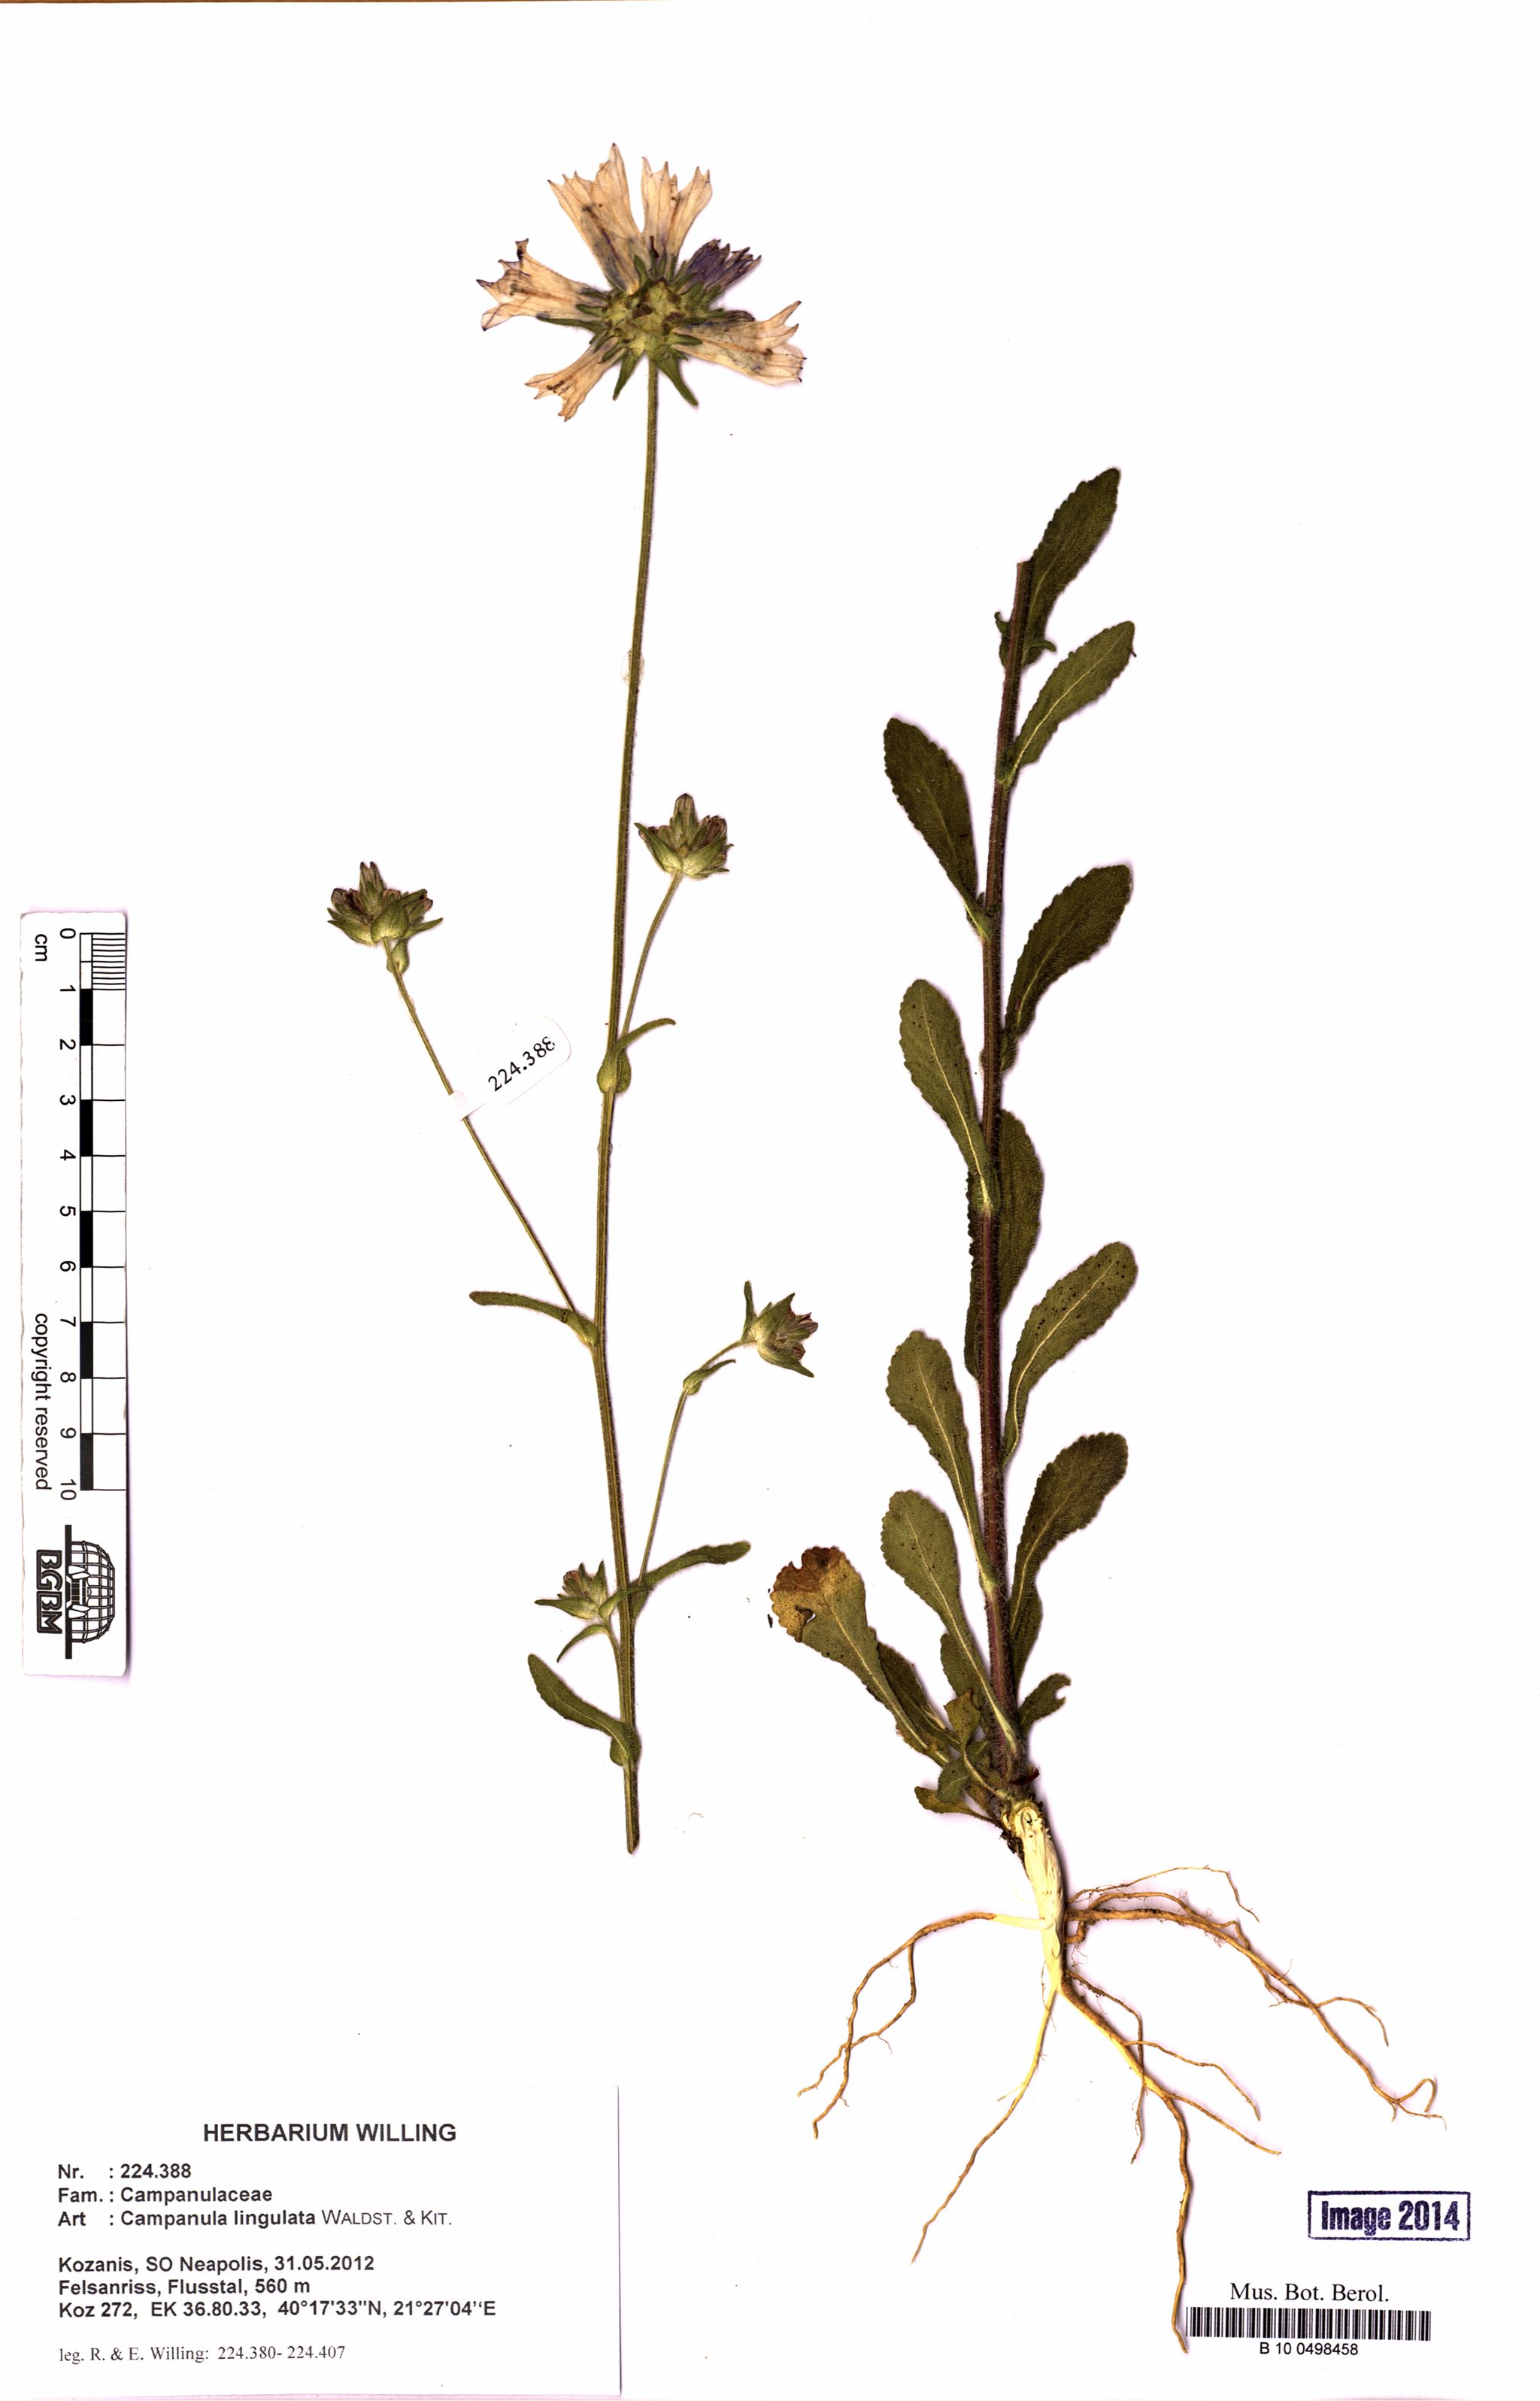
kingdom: Plantae
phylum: Tracheophyta
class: Magnoliopsida
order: Asterales
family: Campanulaceae
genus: Campanula
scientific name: Campanula lingulata
